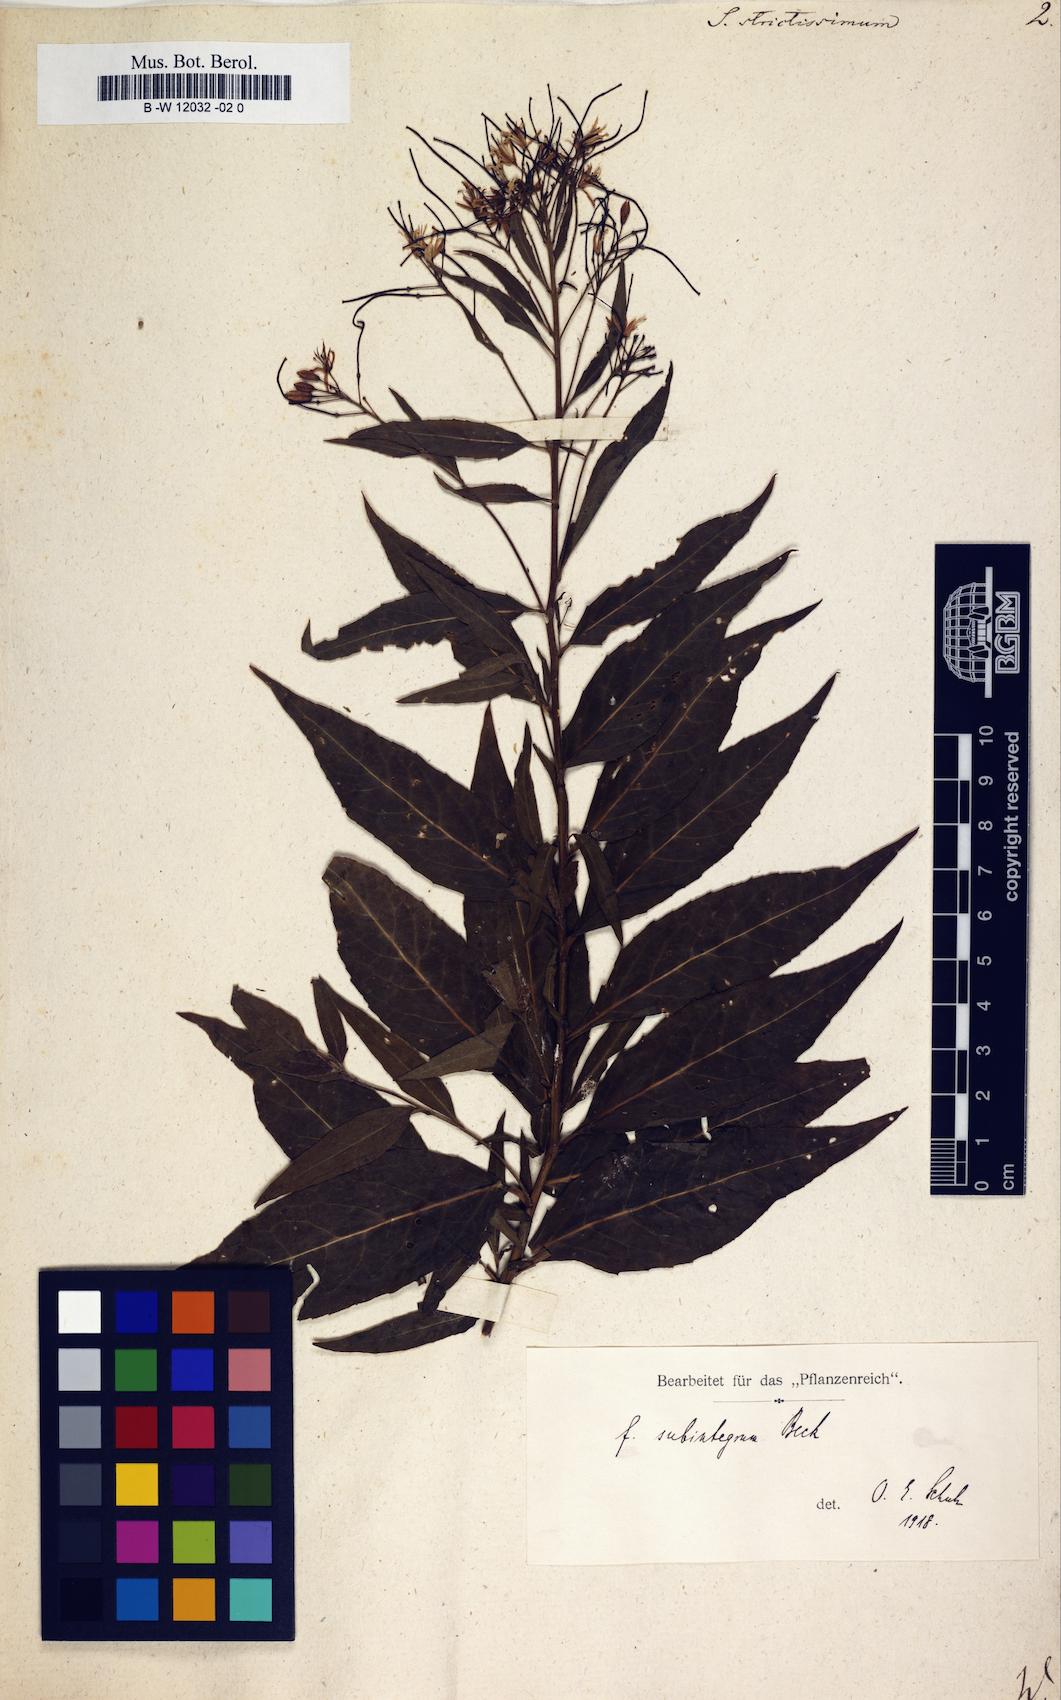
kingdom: Plantae
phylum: Tracheophyta
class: Magnoliopsida
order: Brassicales
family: Brassicaceae
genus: Sisymbrium
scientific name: Sisymbrium strictissimum
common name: Perennial rocket
